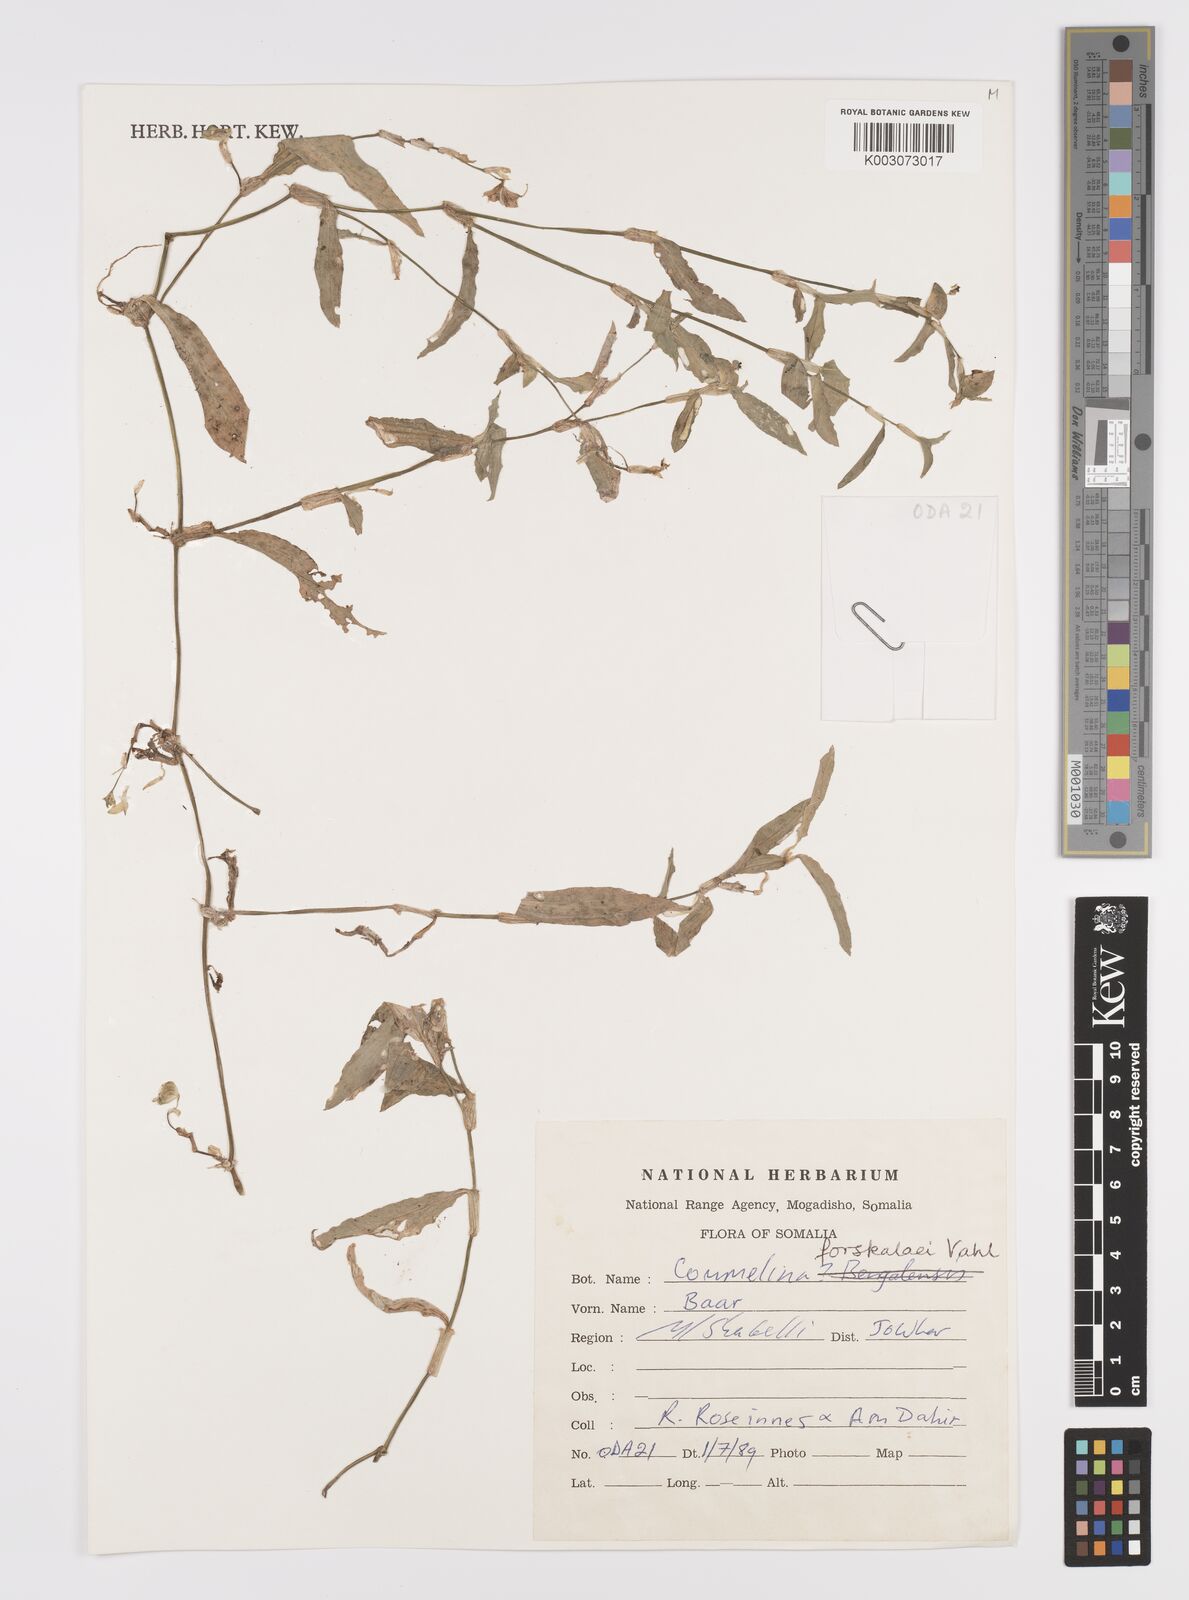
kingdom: Plantae
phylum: Tracheophyta
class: Liliopsida
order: Commelinales
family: Commelinaceae
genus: Commelina
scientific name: Commelina forskaolii
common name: Rat's ear
